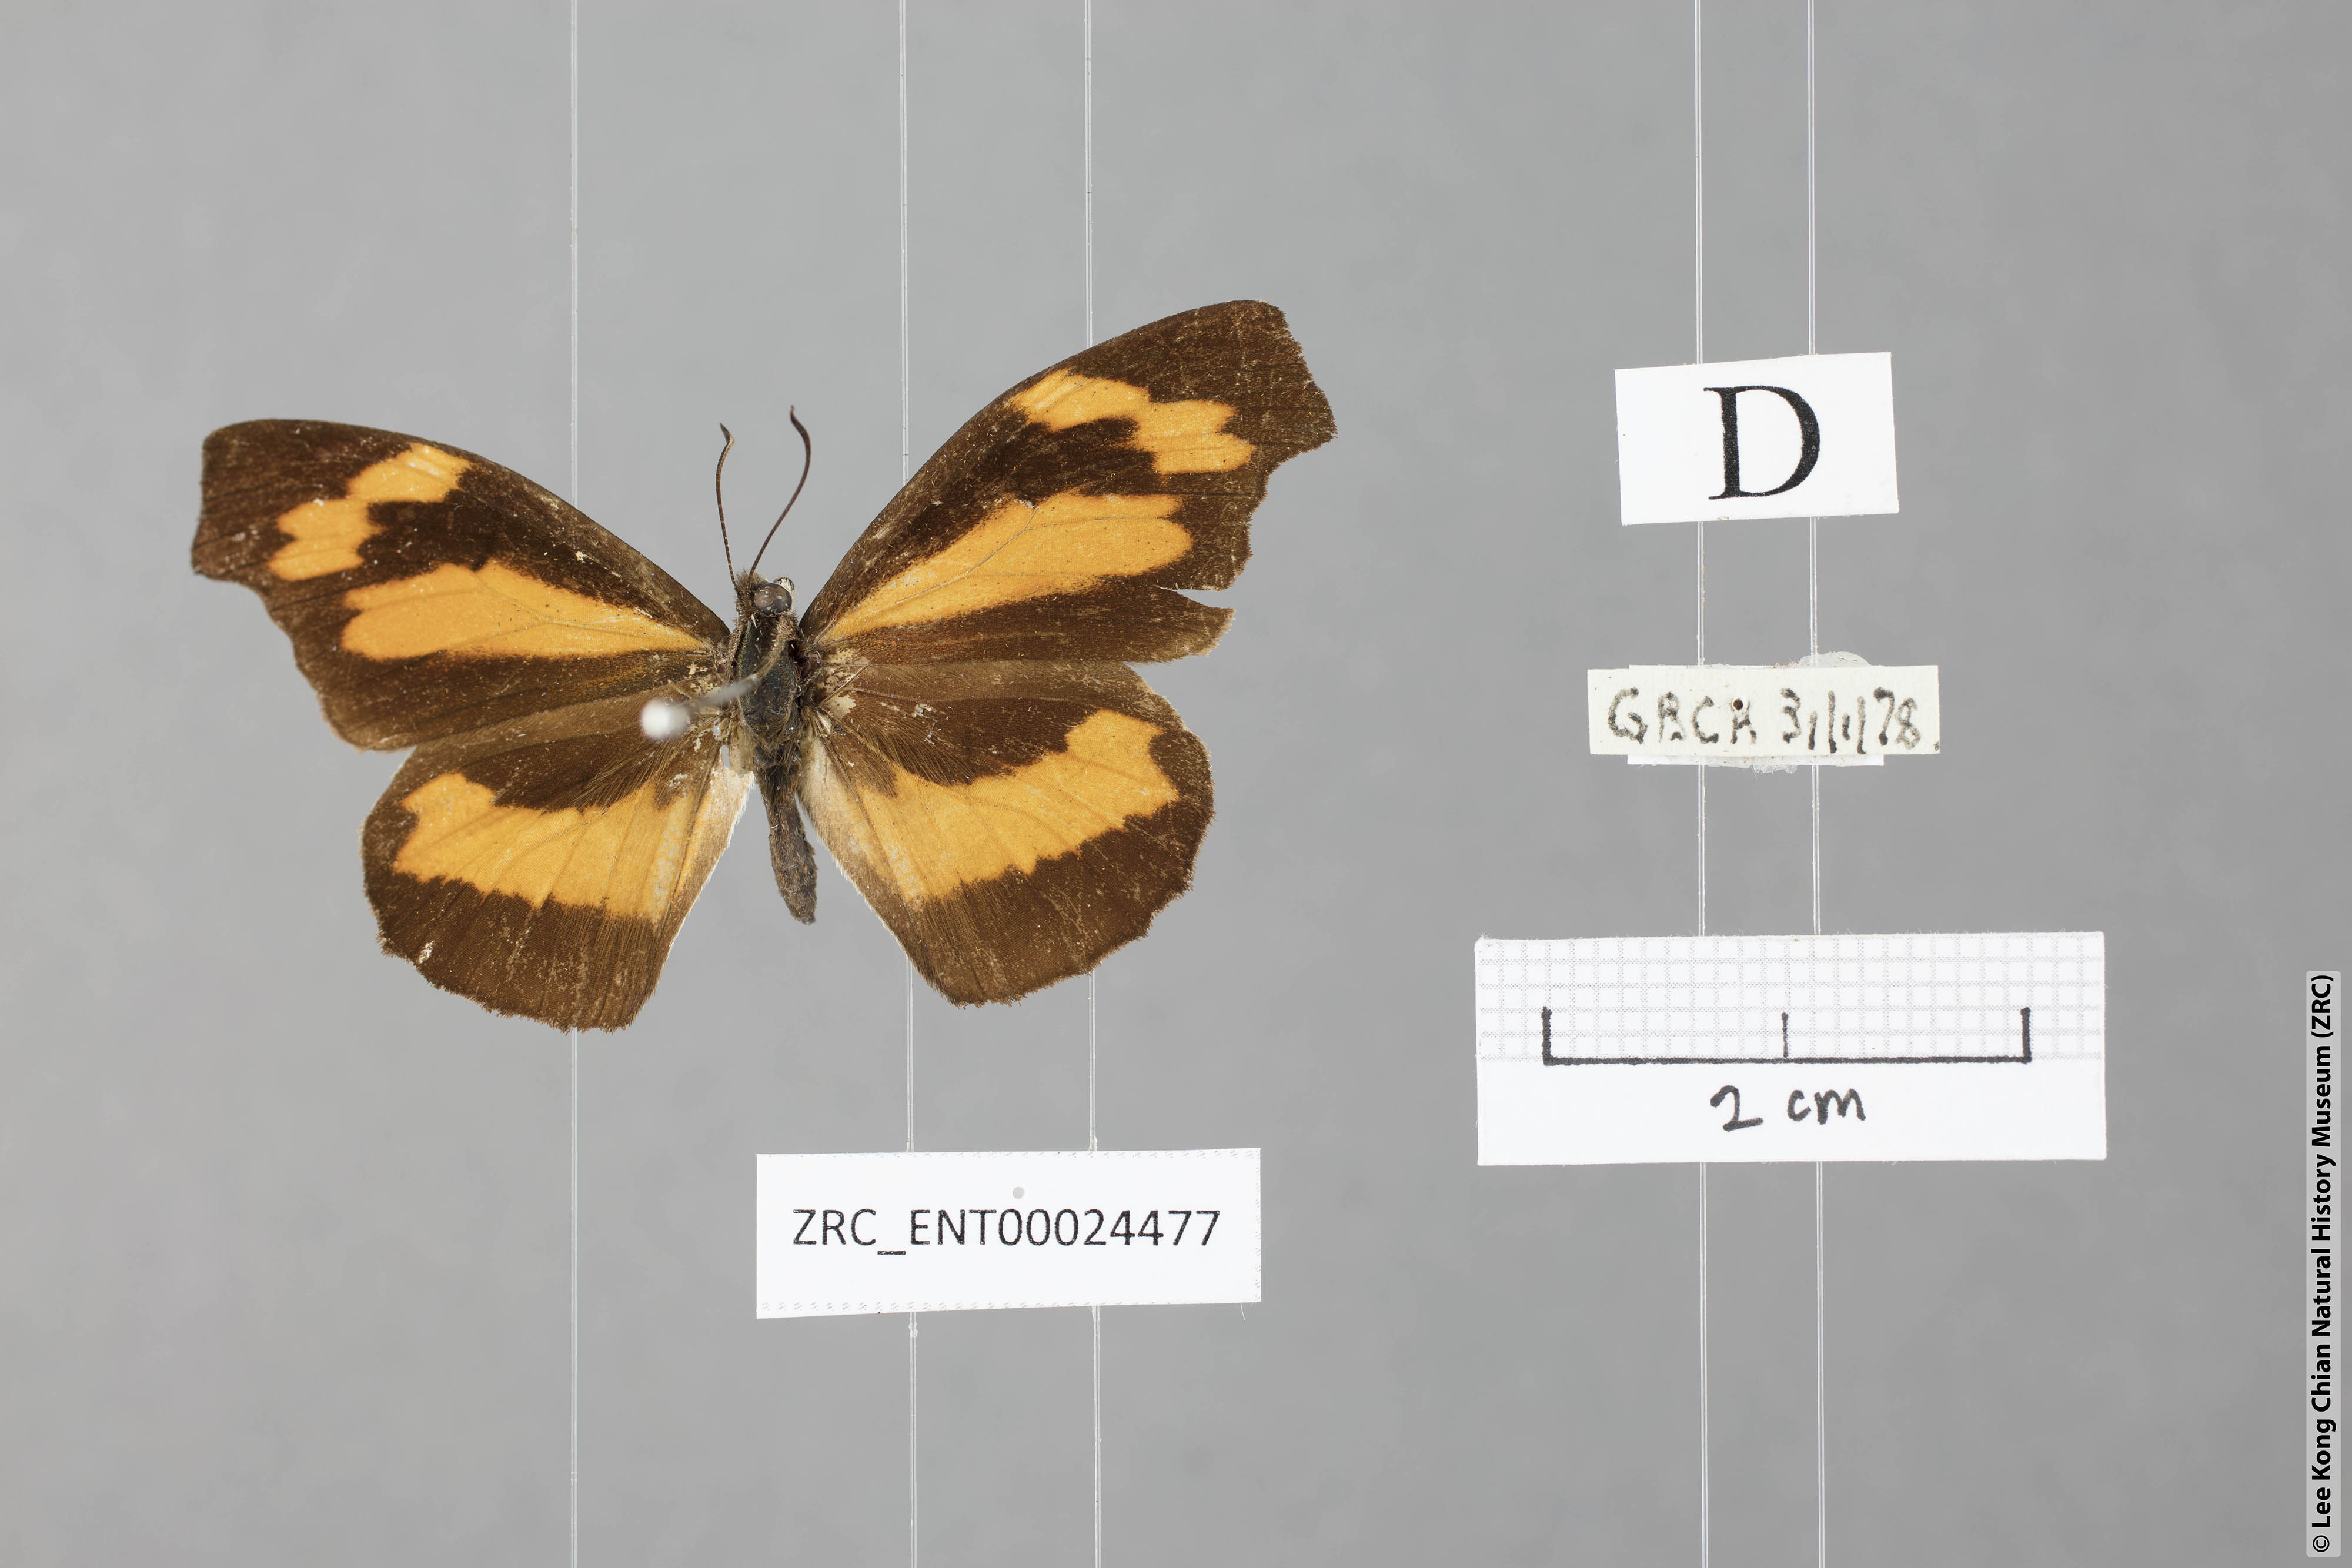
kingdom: Animalia
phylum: Arthropoda
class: Insecta
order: Lepidoptera
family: Nymphalidae
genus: Libythea
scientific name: Libythea myrrha
